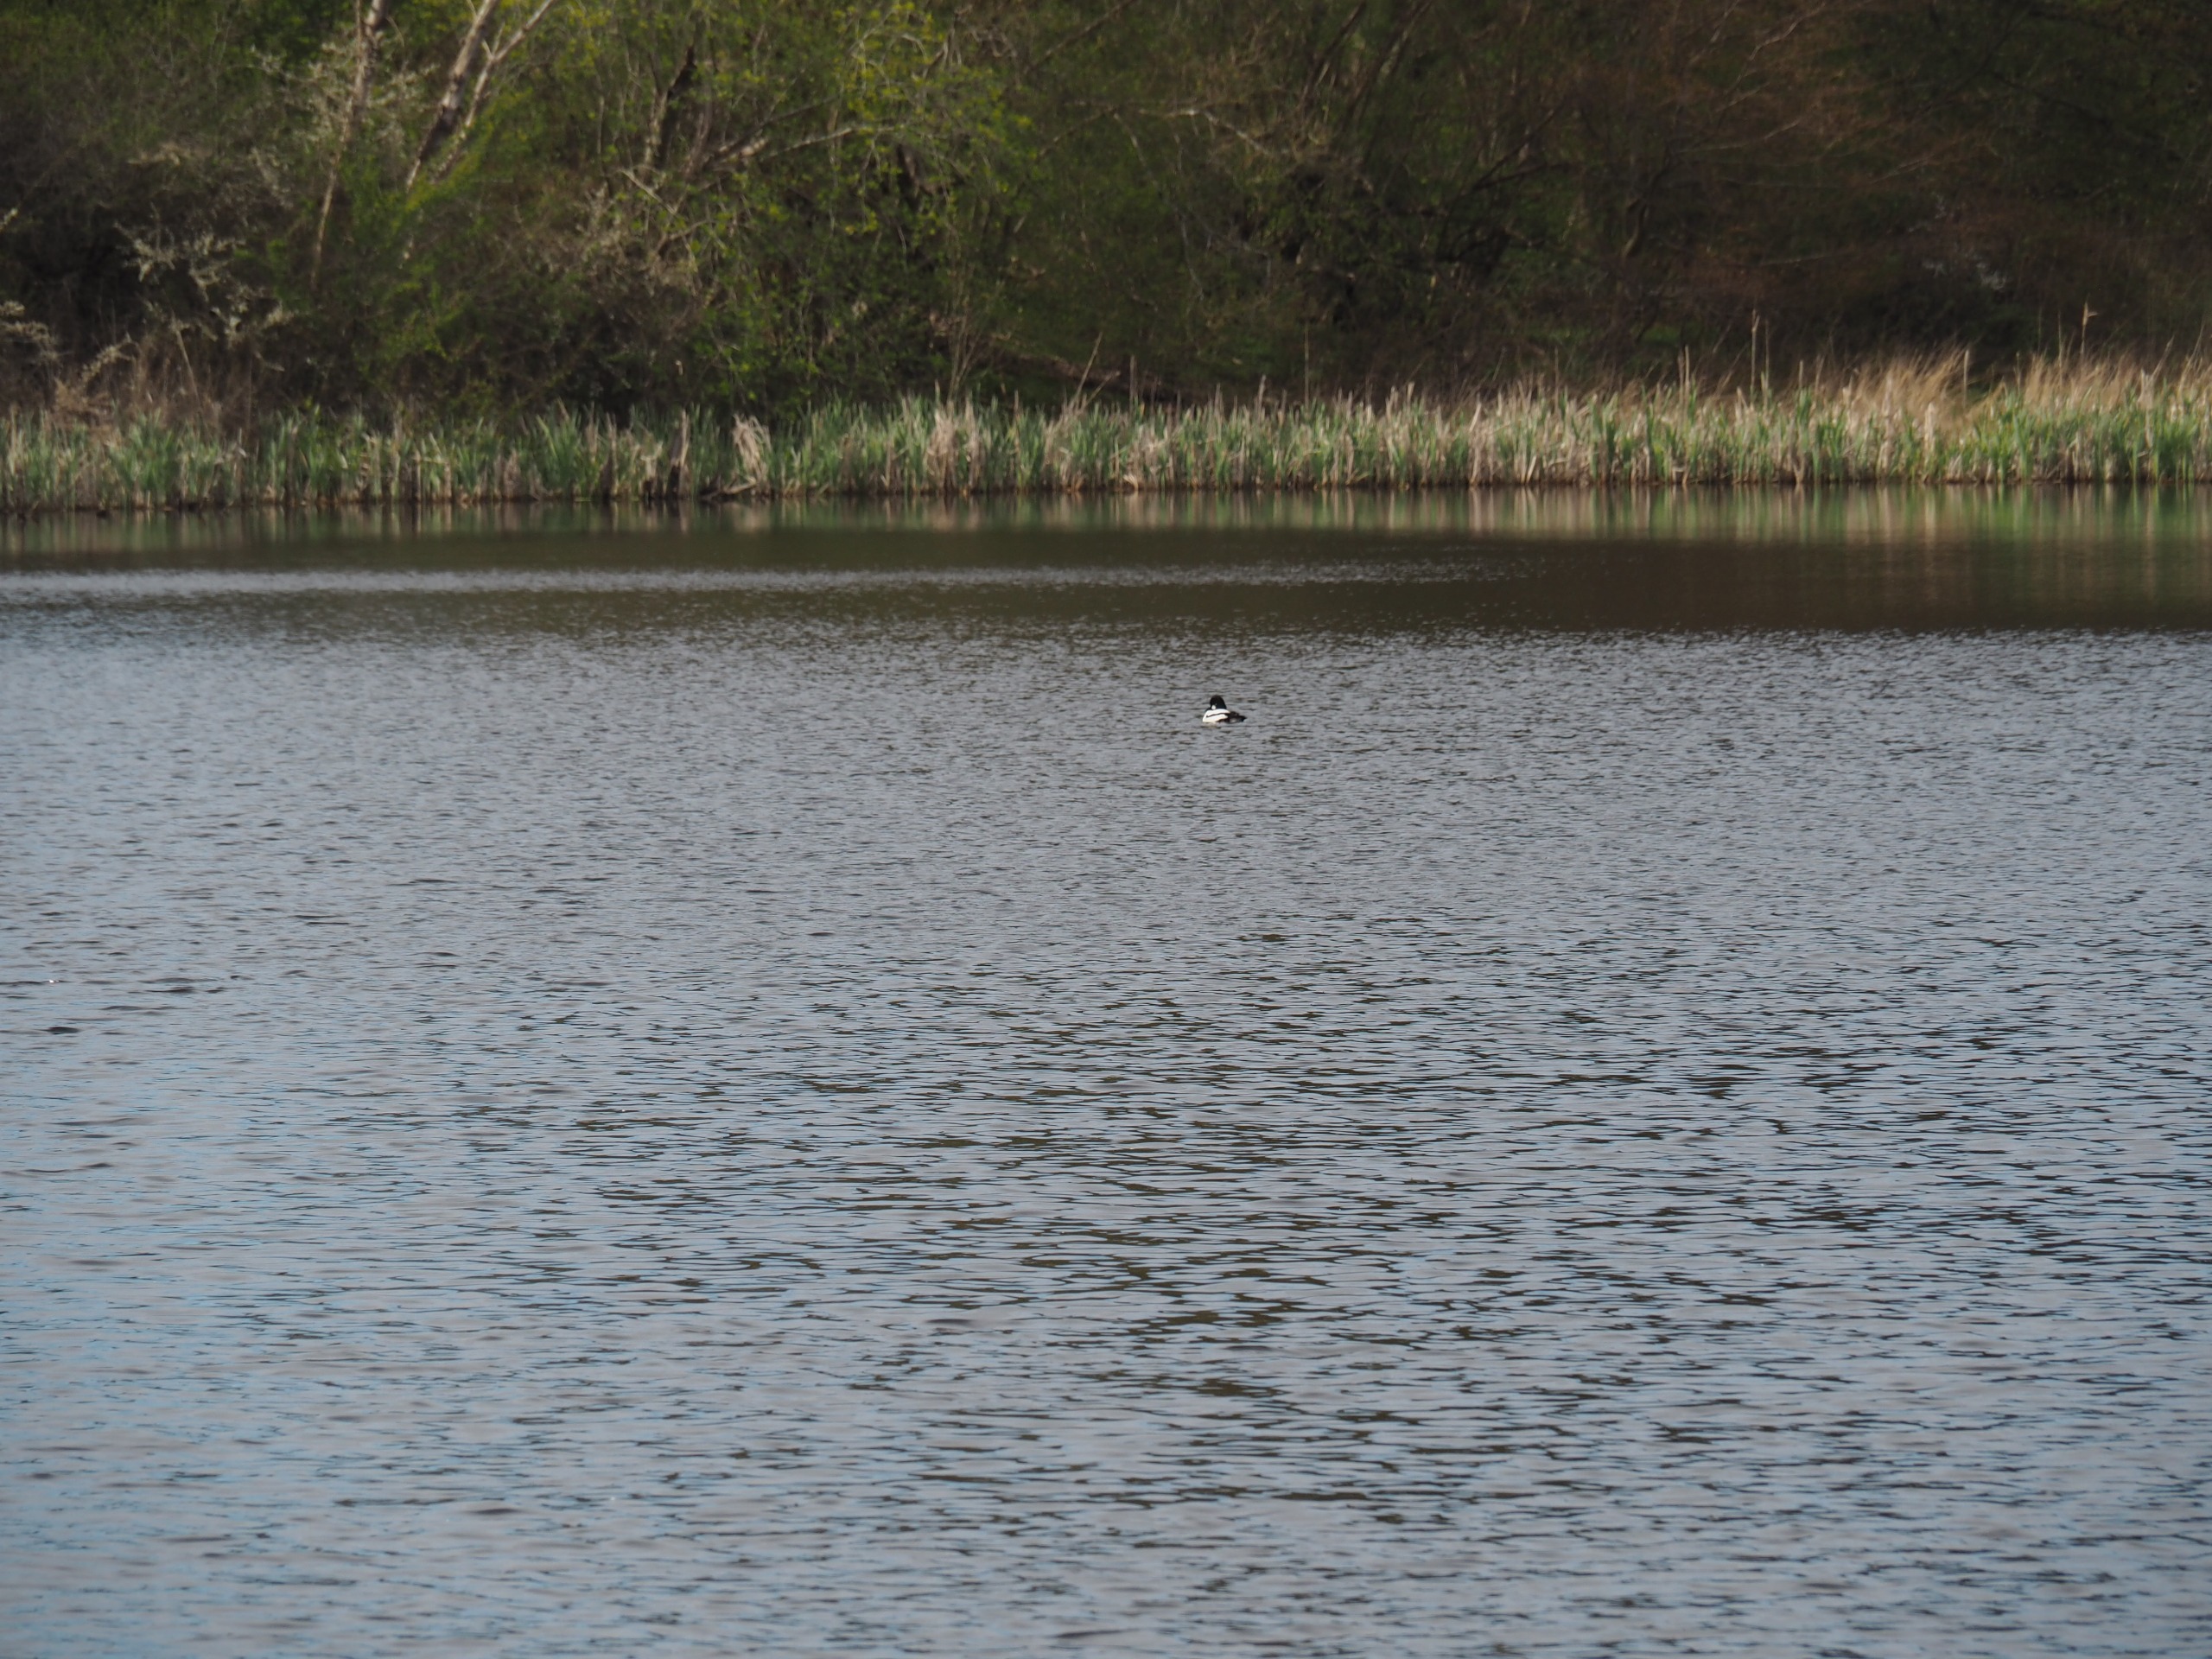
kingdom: Animalia
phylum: Chordata
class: Aves
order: Anseriformes
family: Anatidae
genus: Bucephala
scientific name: Bucephala clangula
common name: Hvinand
